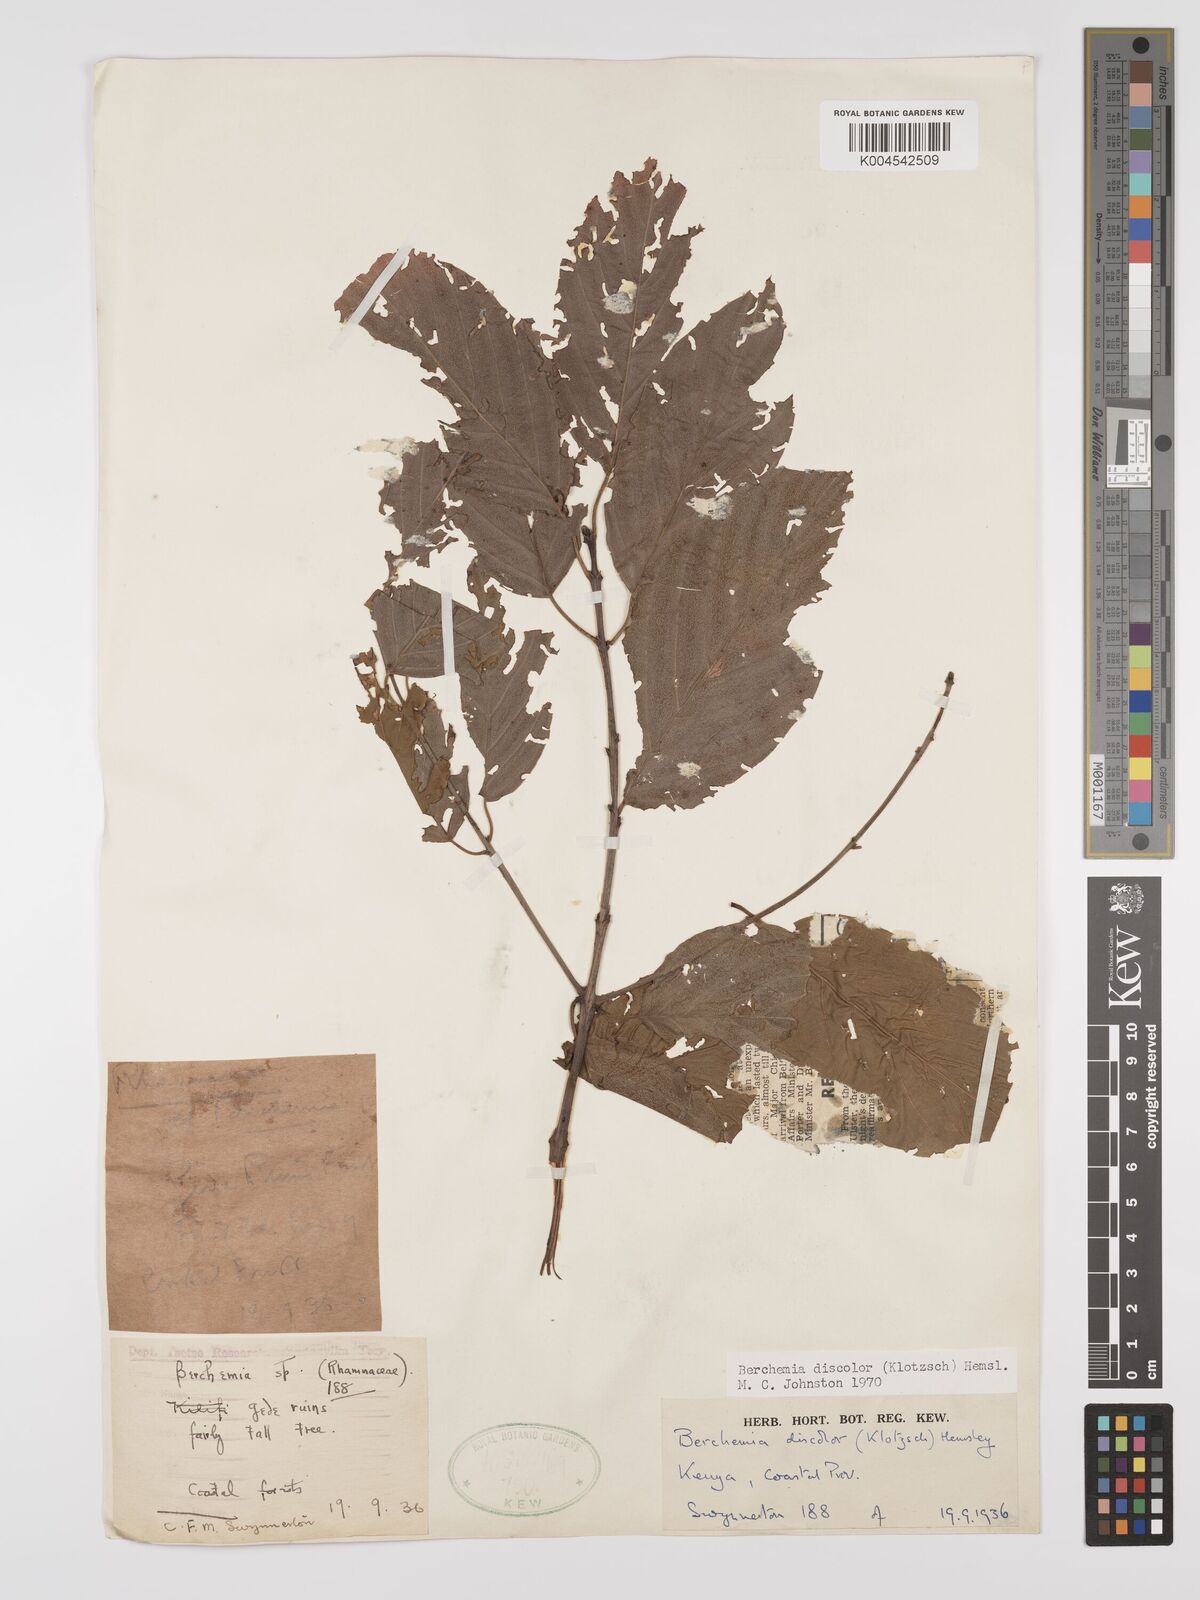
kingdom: Plantae
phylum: Tracheophyta
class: Magnoliopsida
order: Rosales
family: Rhamnaceae
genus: Phyllogeiton
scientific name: Phyllogeiton discolor
